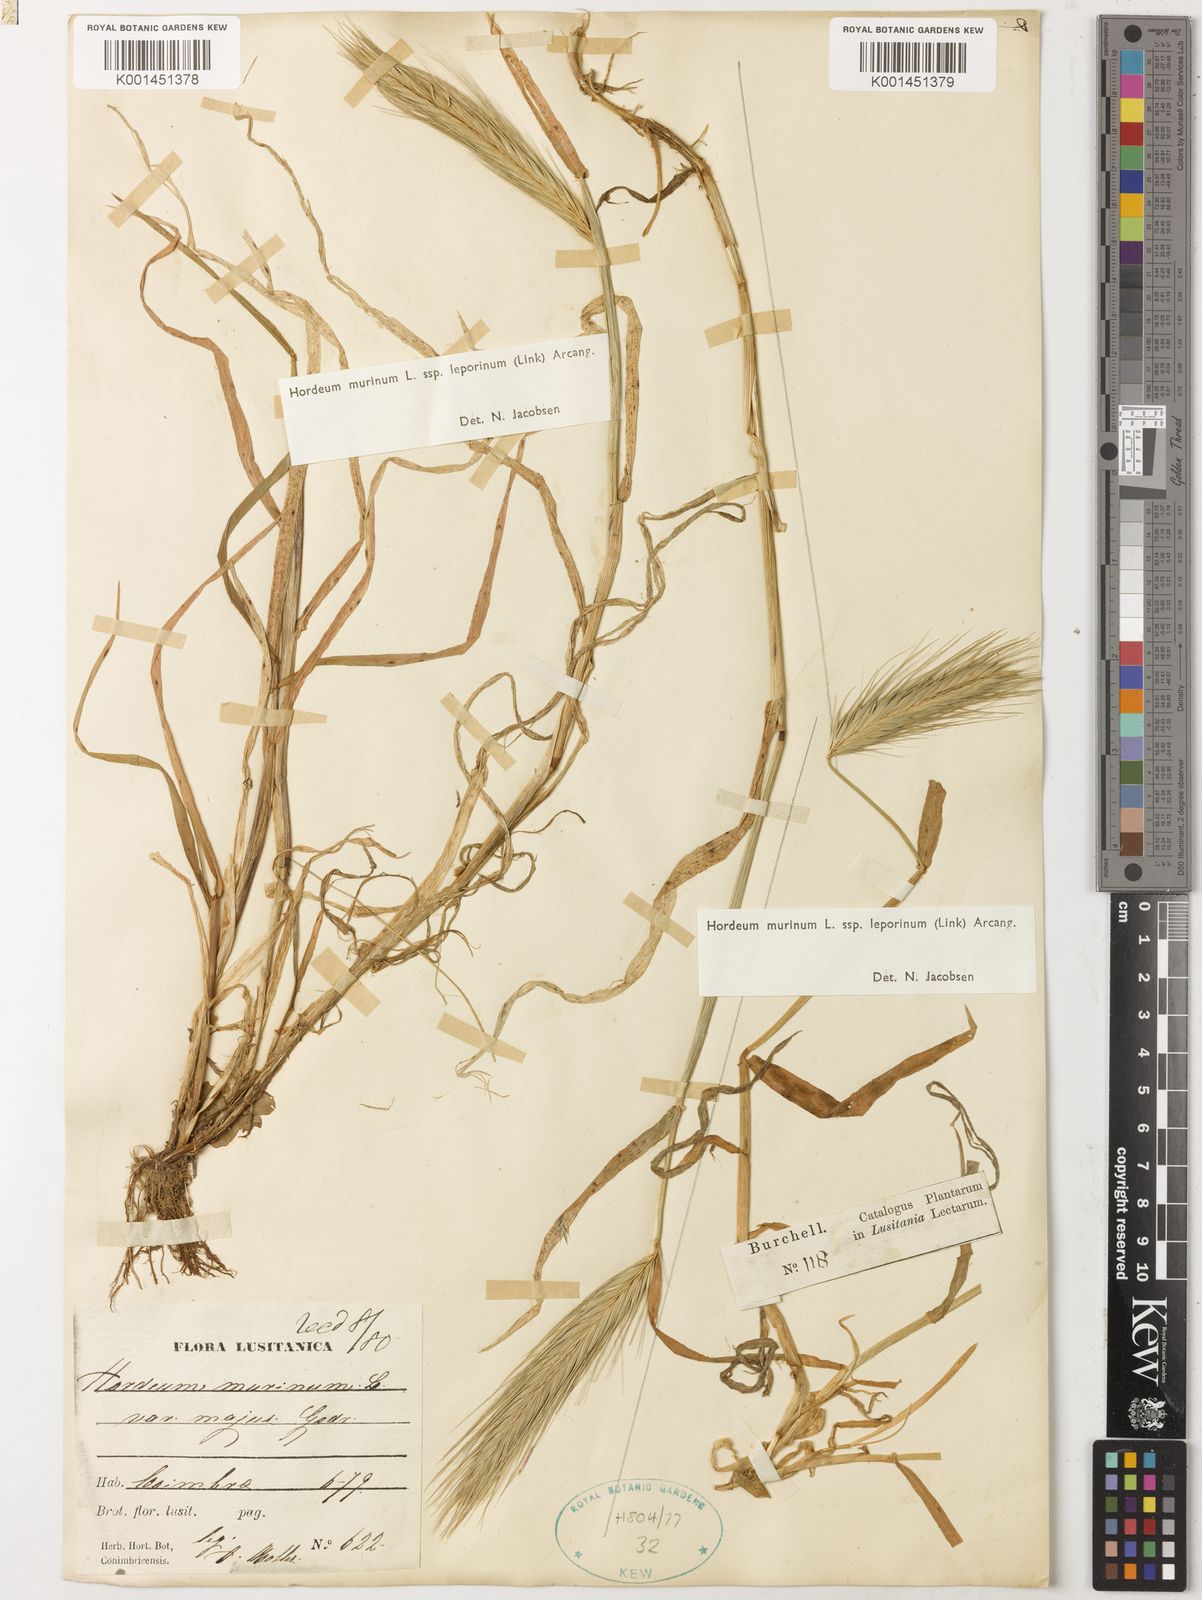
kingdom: Plantae
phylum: Tracheophyta
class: Liliopsida
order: Poales
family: Poaceae
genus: Hordeum
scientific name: Hordeum murinum
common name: Wall barley
